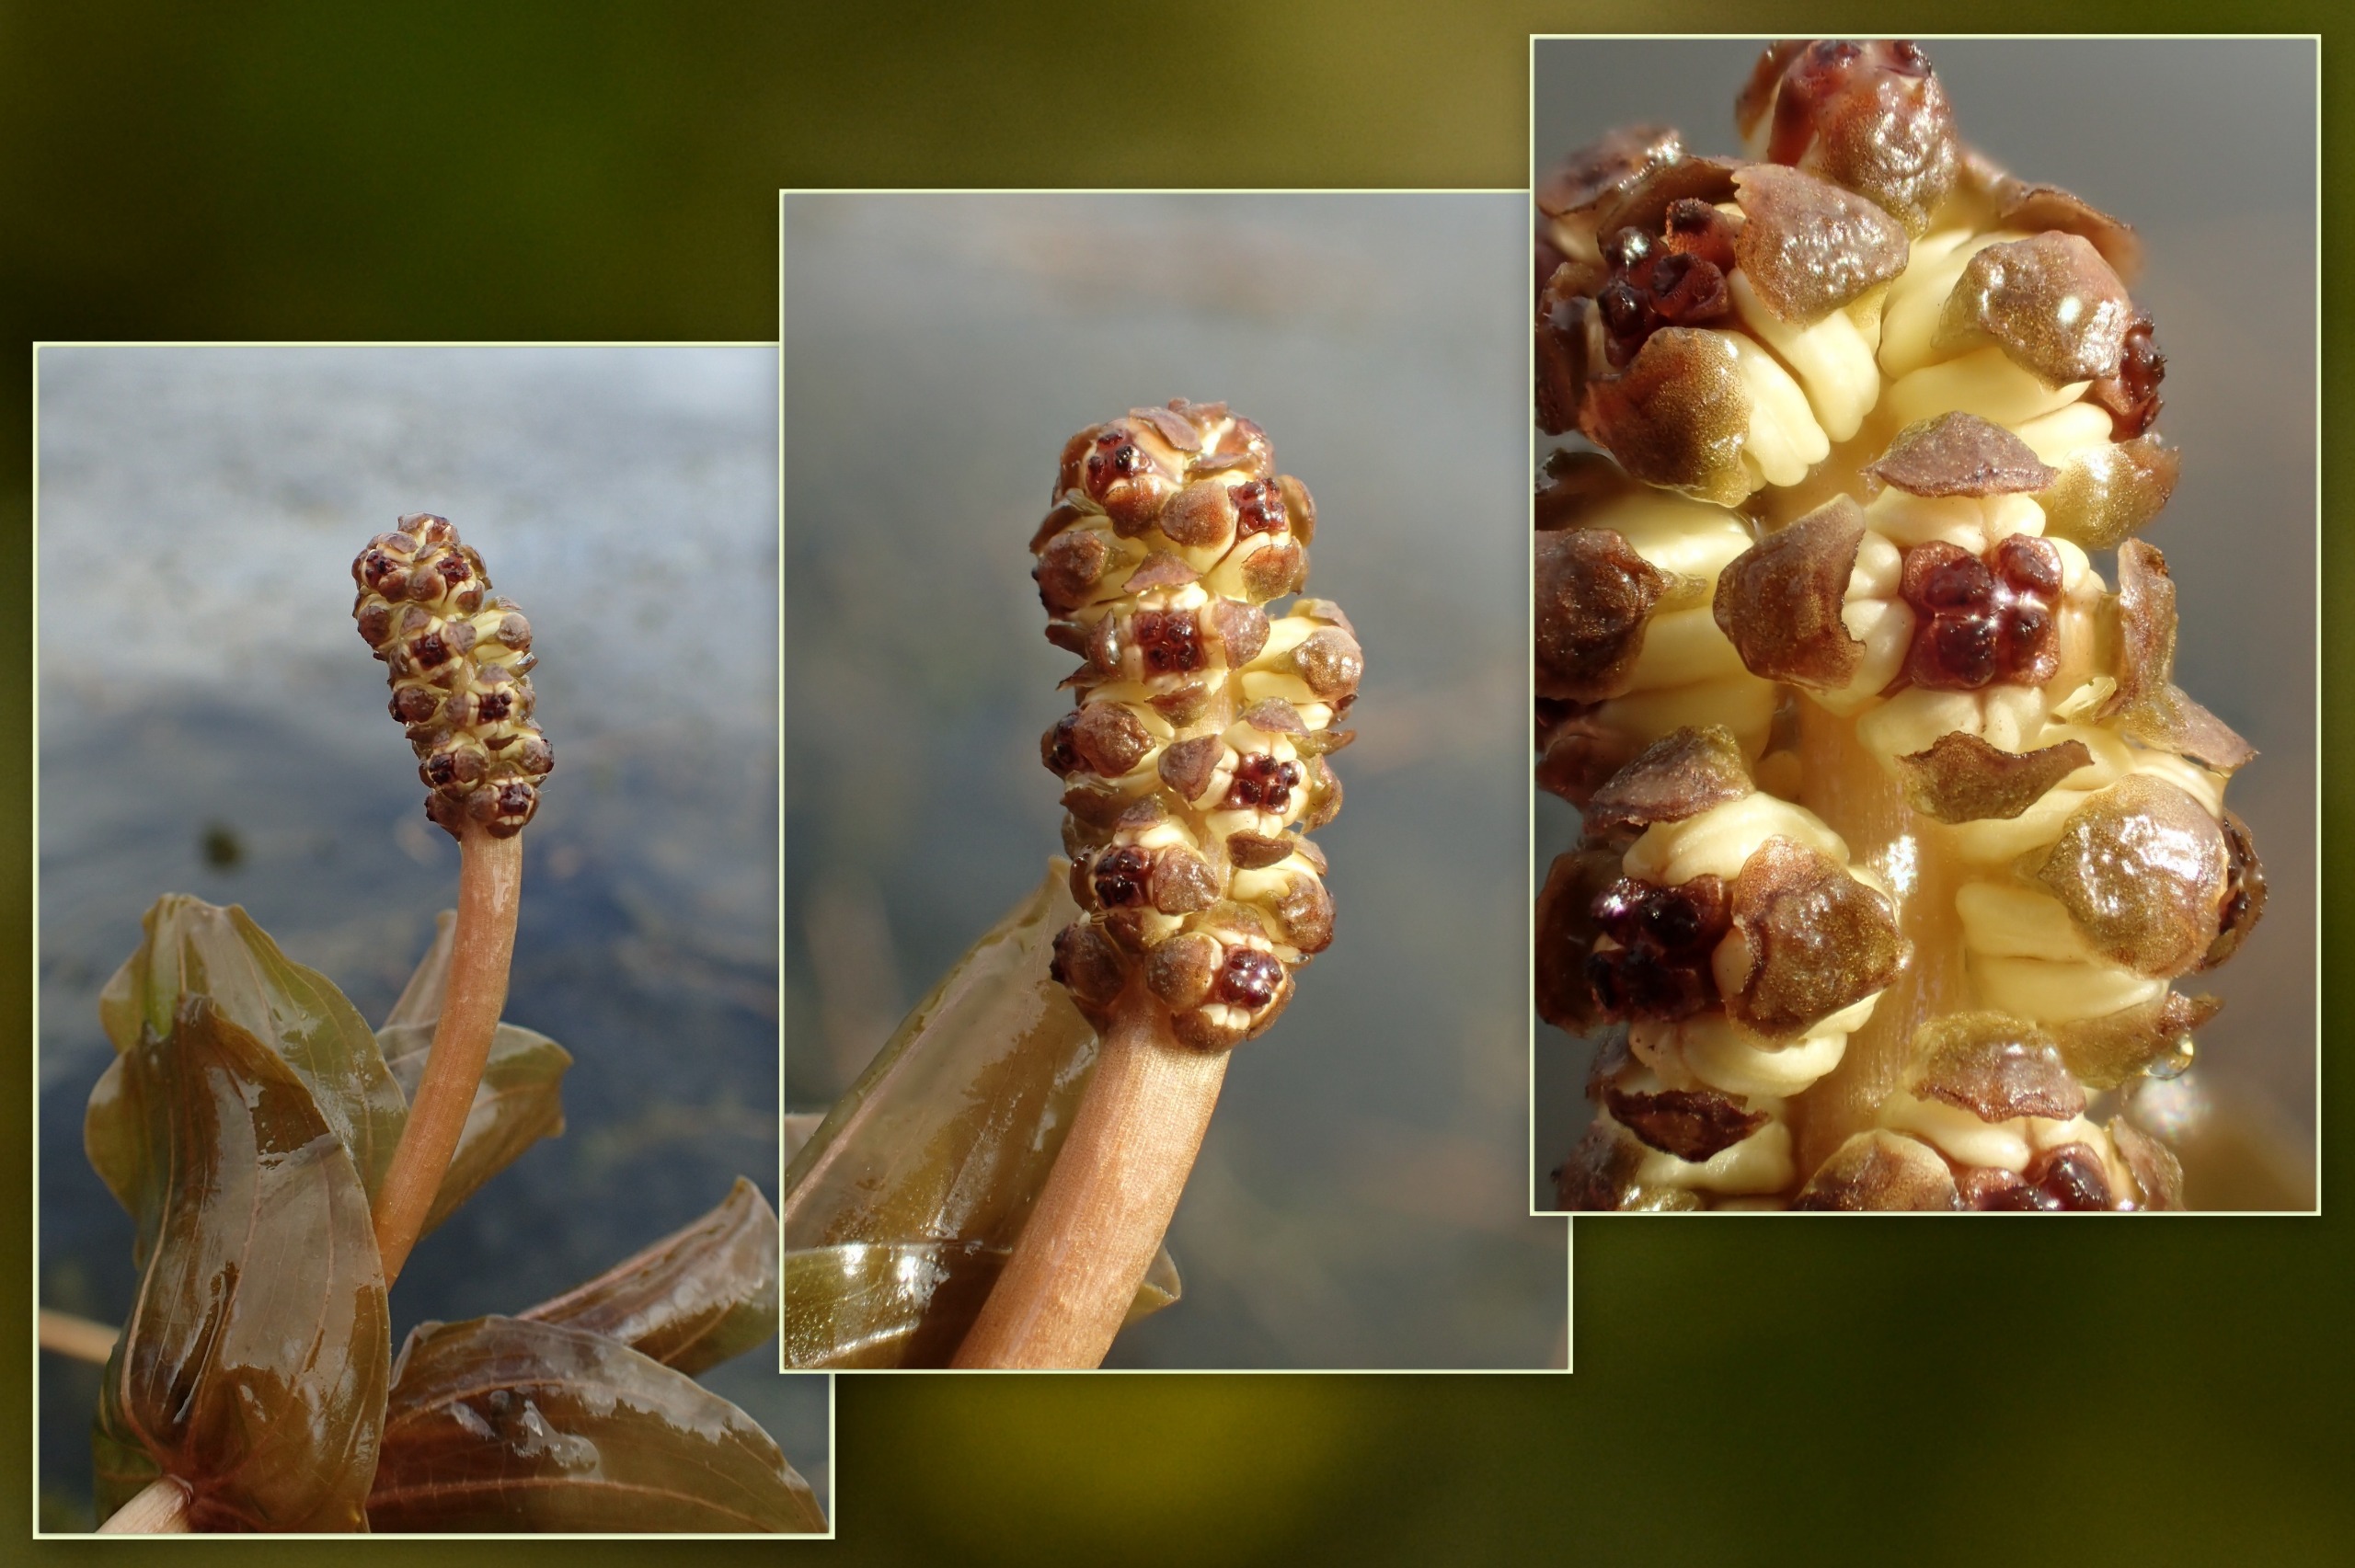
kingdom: Plantae
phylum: Tracheophyta
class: Liliopsida
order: Alismatales
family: Potamogetonaceae
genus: Potamogeton
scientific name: Potamogeton perfoliatus
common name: Hjertebladet vandaks
